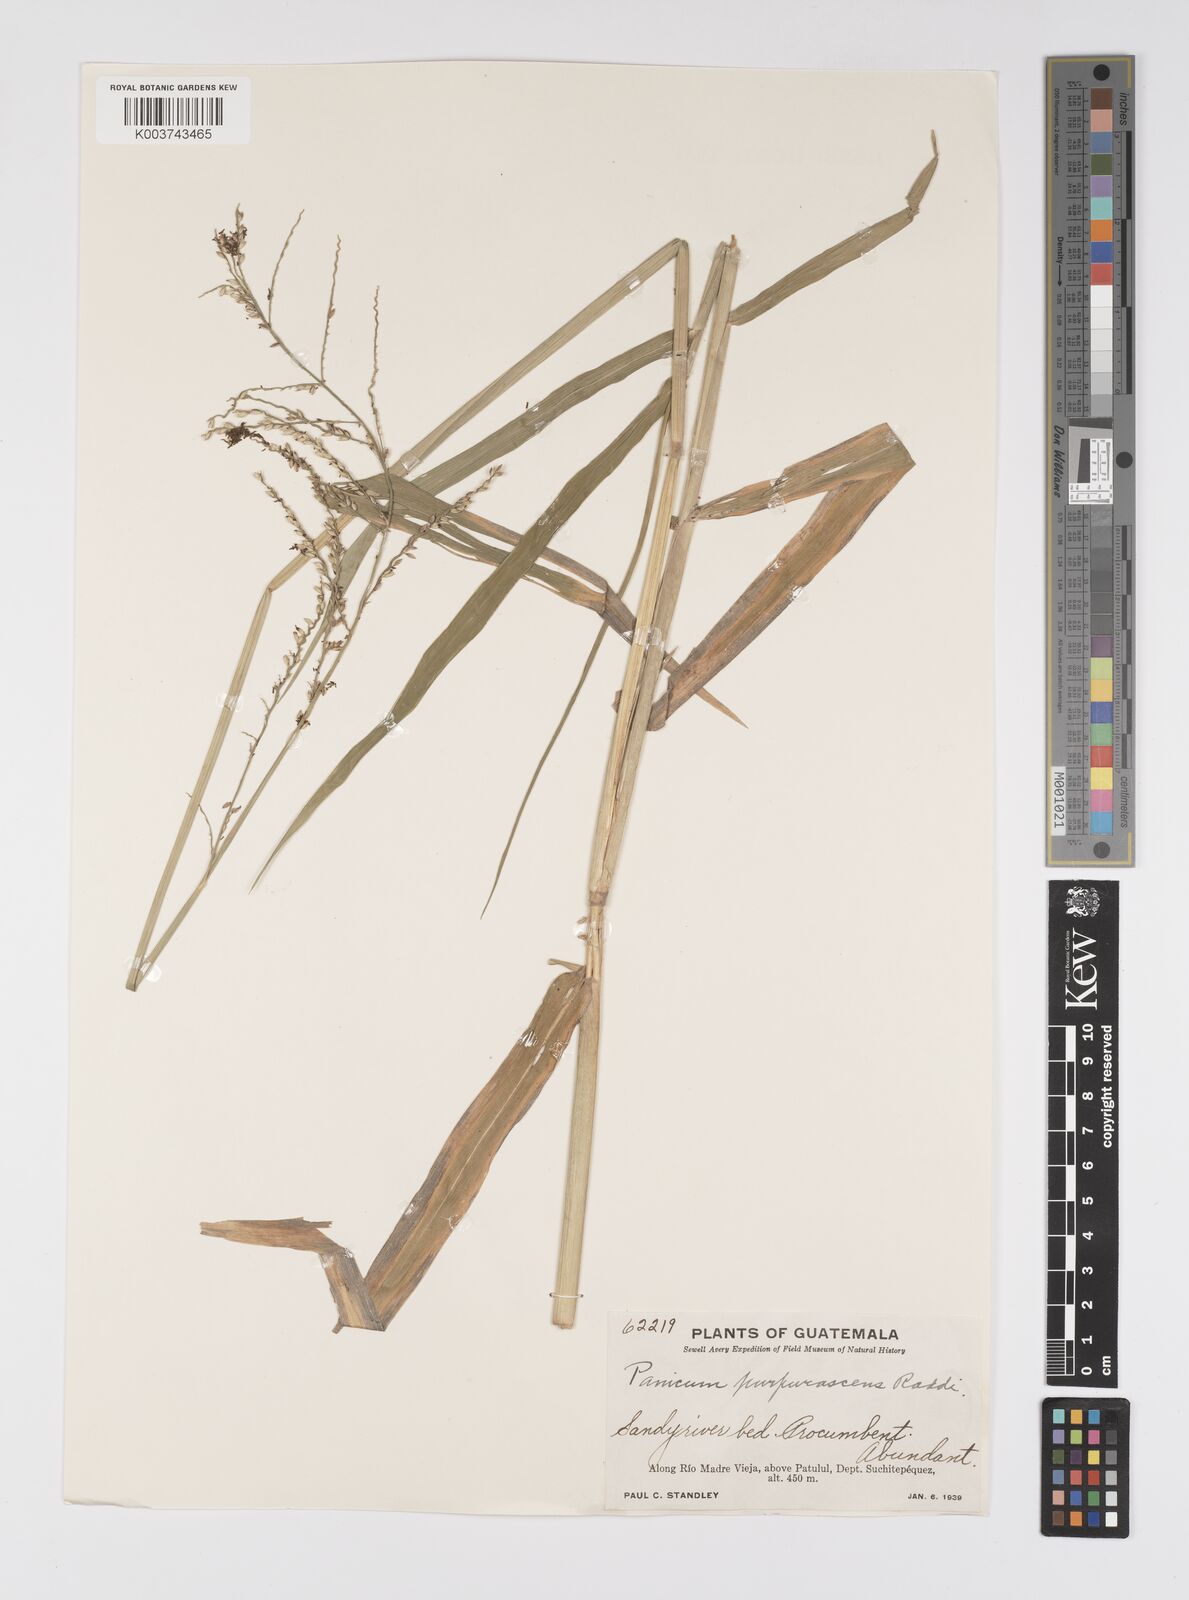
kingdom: Plantae
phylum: Tracheophyta
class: Liliopsida
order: Poales
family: Poaceae
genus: Urochloa
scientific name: Urochloa mutica
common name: Para grass
